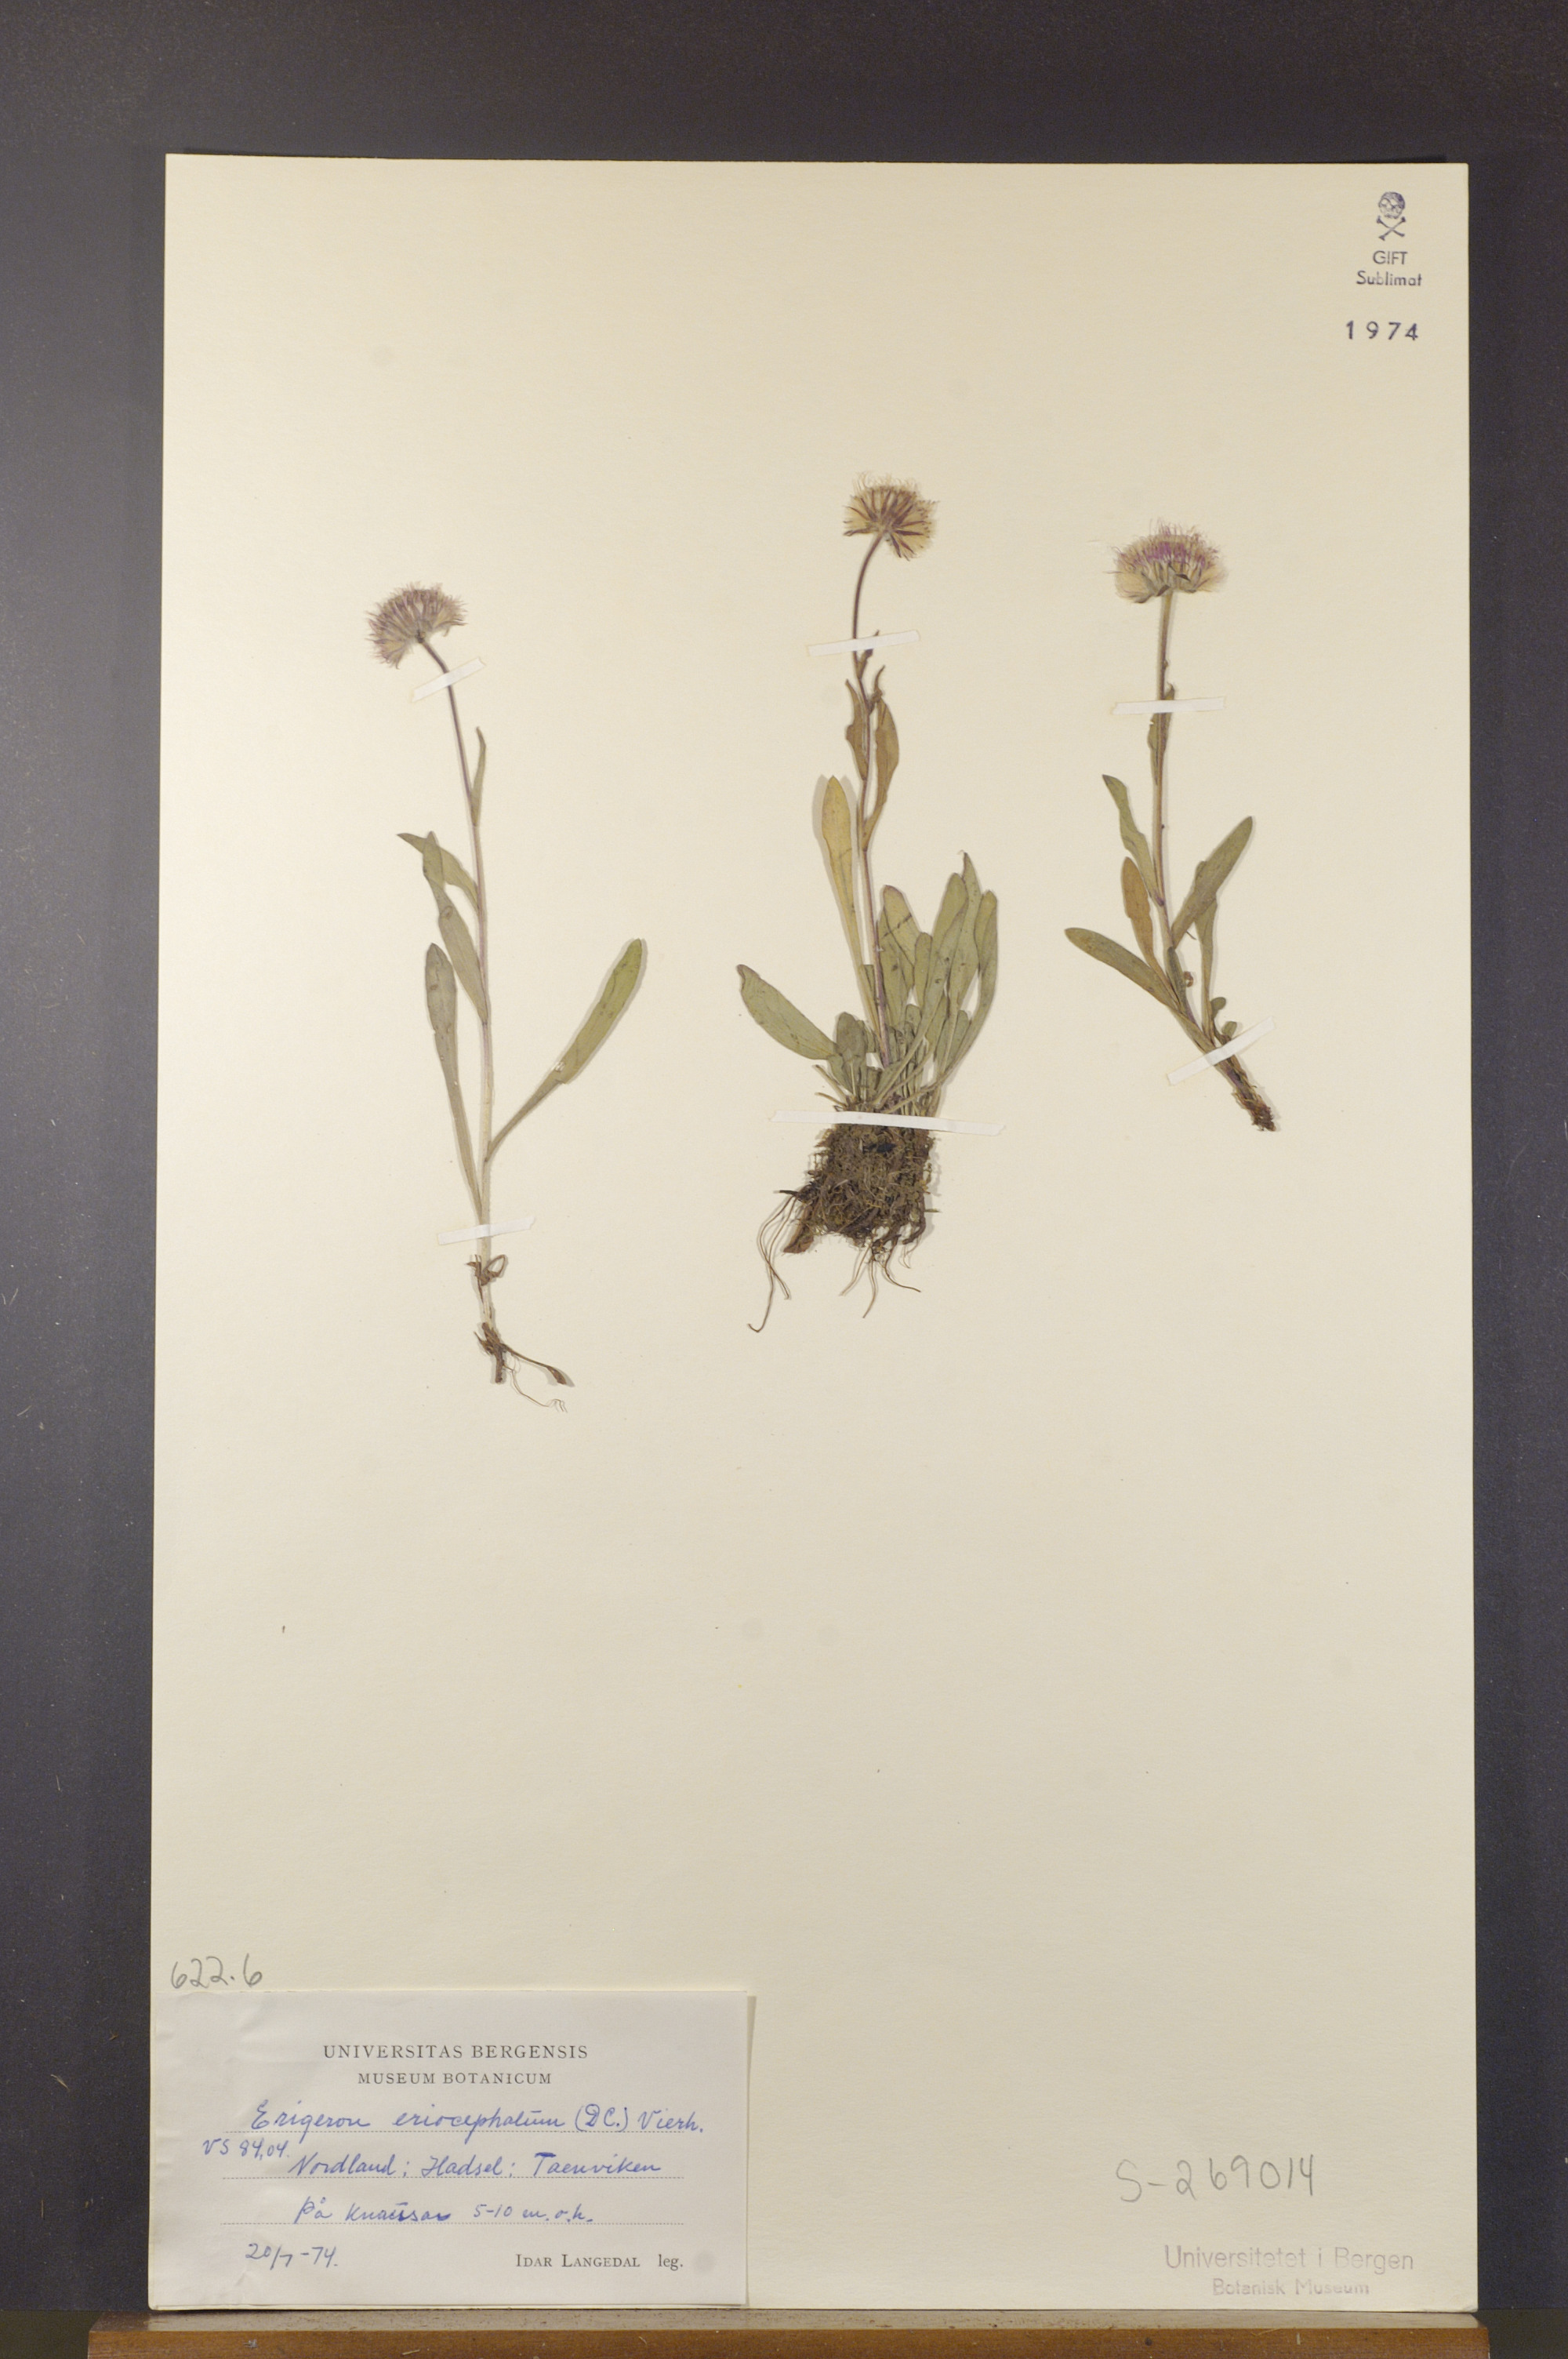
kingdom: Plantae
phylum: Tracheophyta
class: Magnoliopsida
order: Asterales
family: Asteraceae
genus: Erigeron
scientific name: Erigeron eriocephalus
